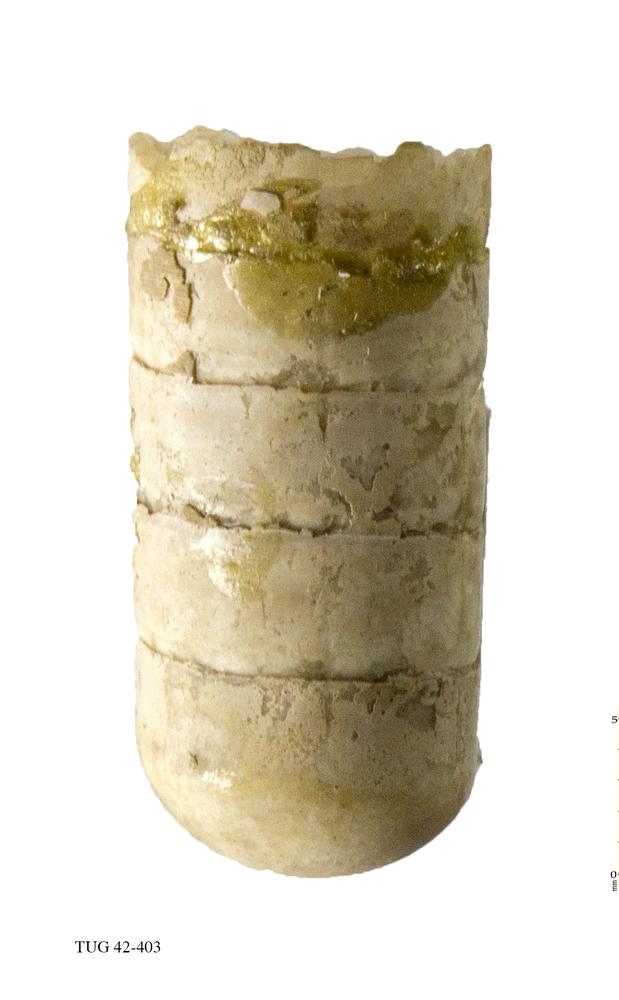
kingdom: Animalia
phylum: Mollusca
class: Cephalopoda
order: Orthocerida
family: Orthoceratidae
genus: Orthoceras
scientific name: Orthoceras regulare
